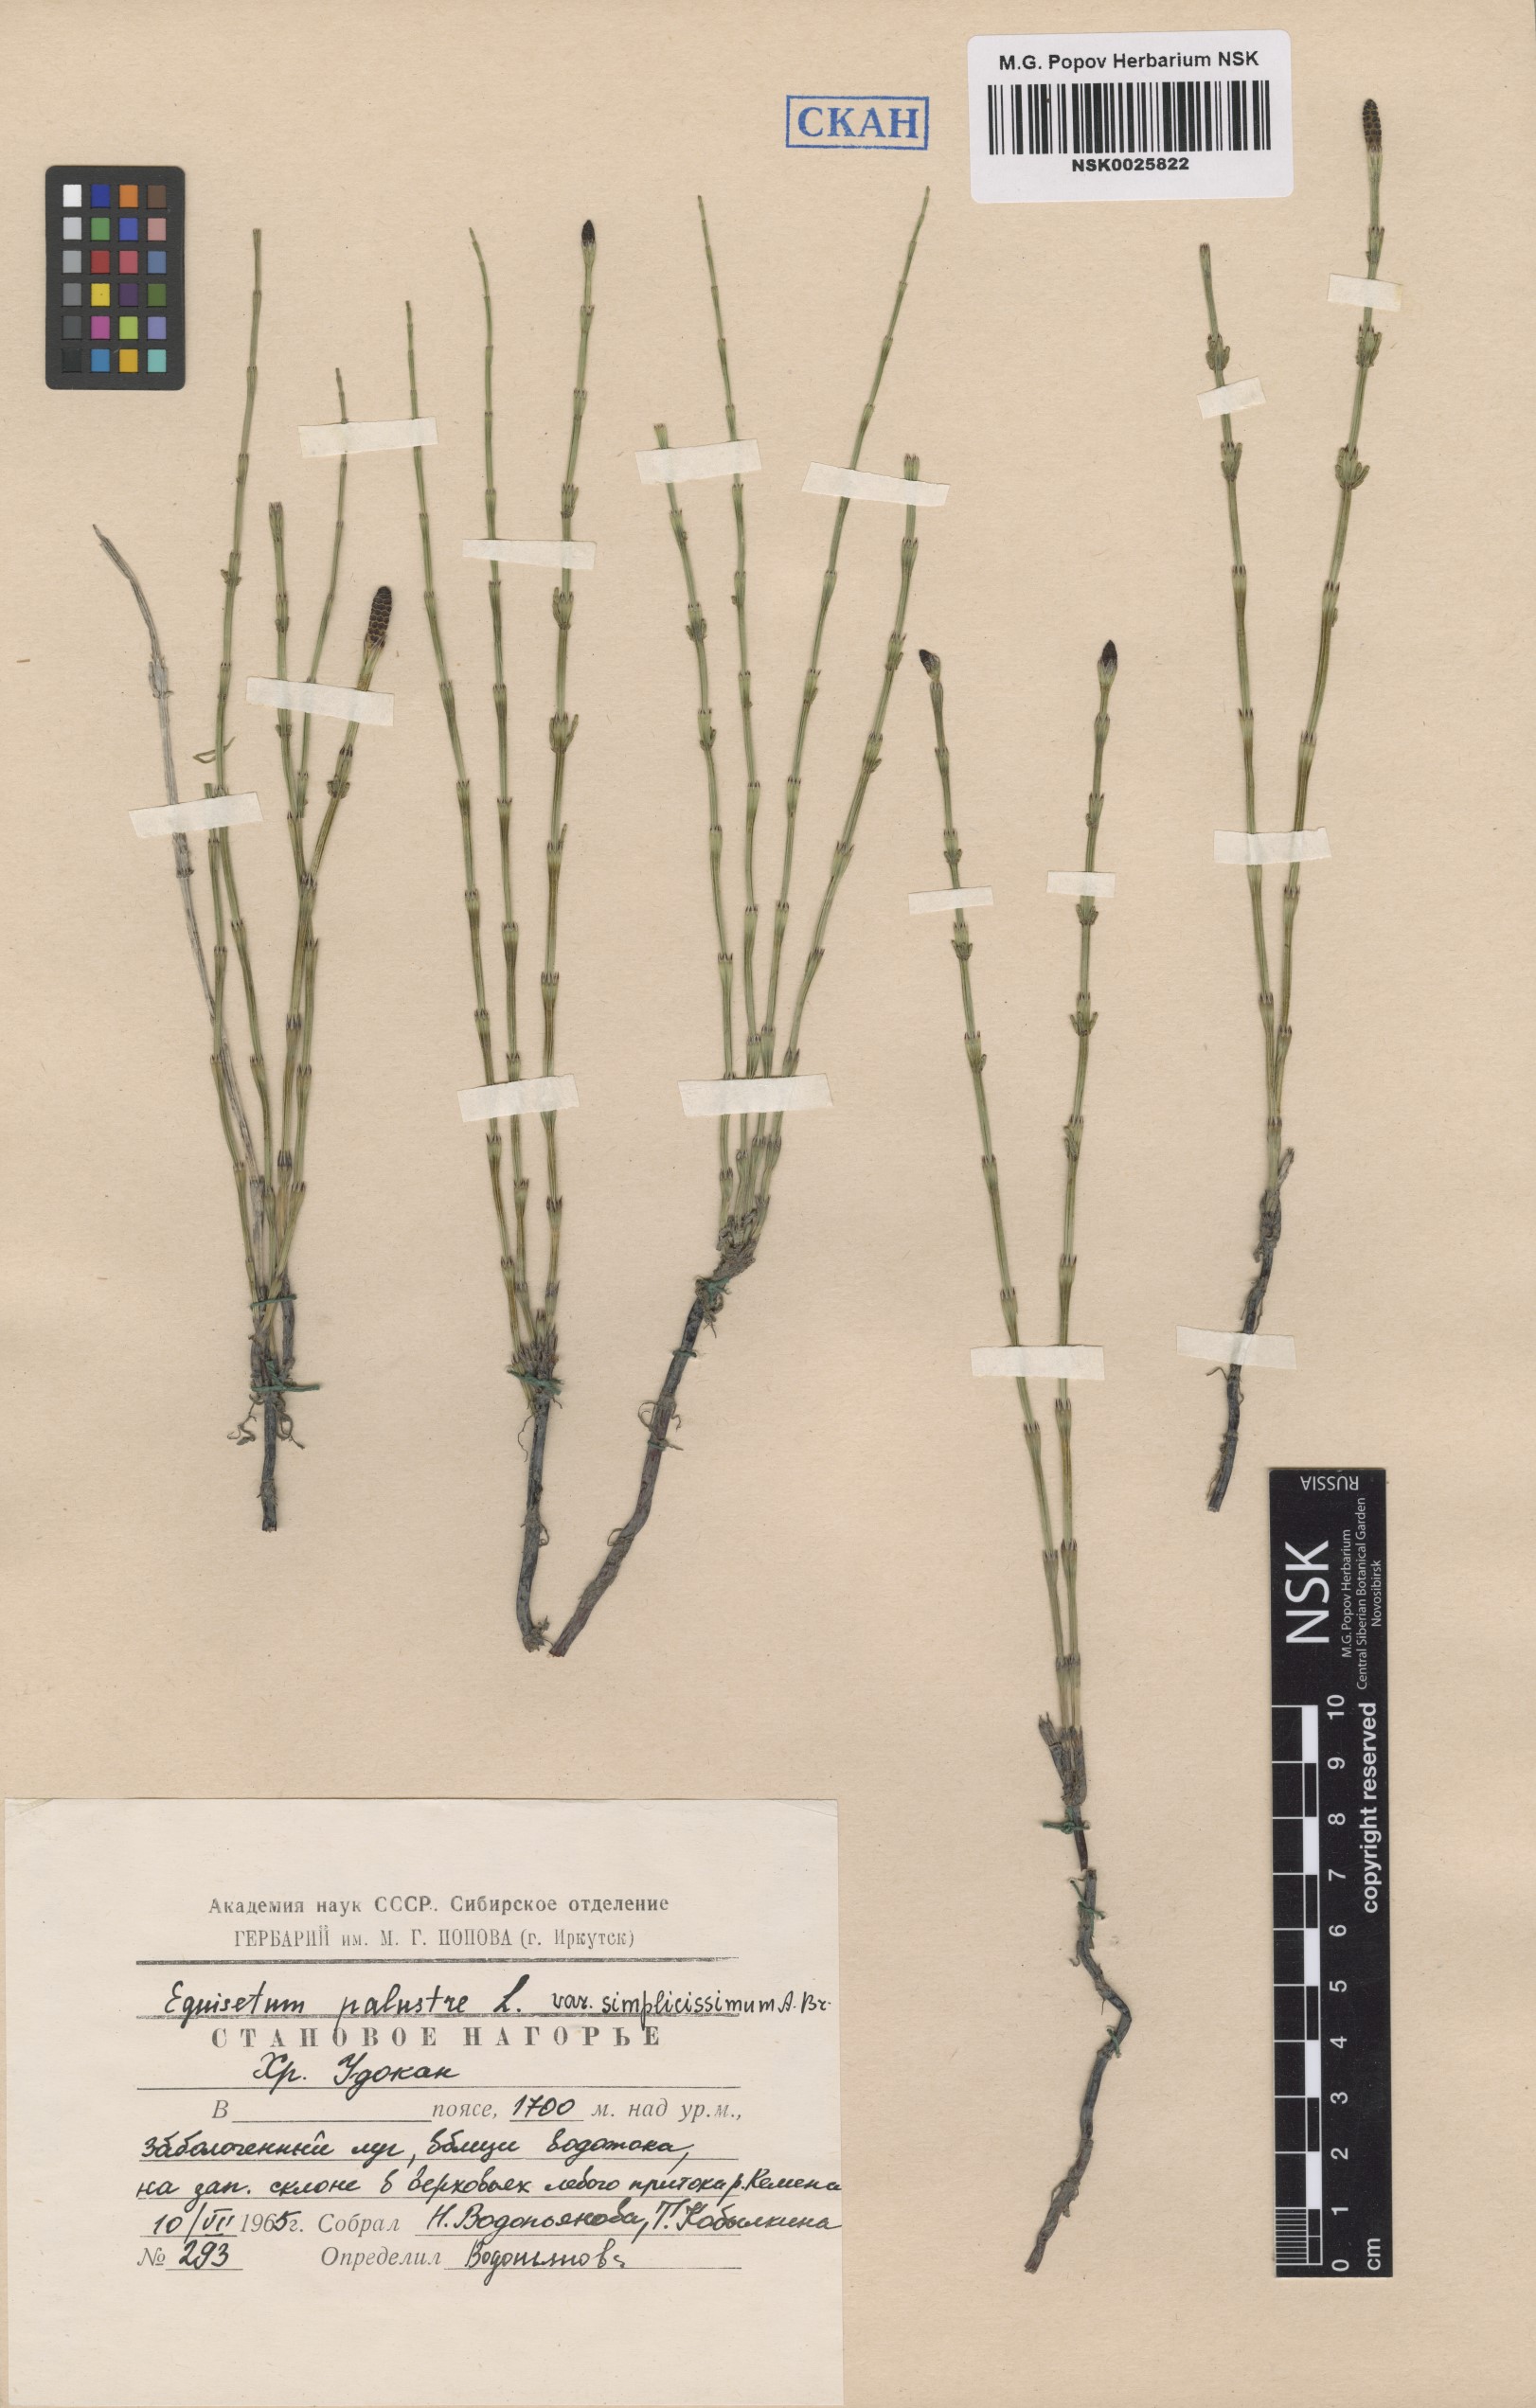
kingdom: Plantae
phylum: Tracheophyta
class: Polypodiopsida
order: Equisetales
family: Equisetaceae
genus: Equisetum
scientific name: Equisetum palustre
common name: Marsh horsetail
